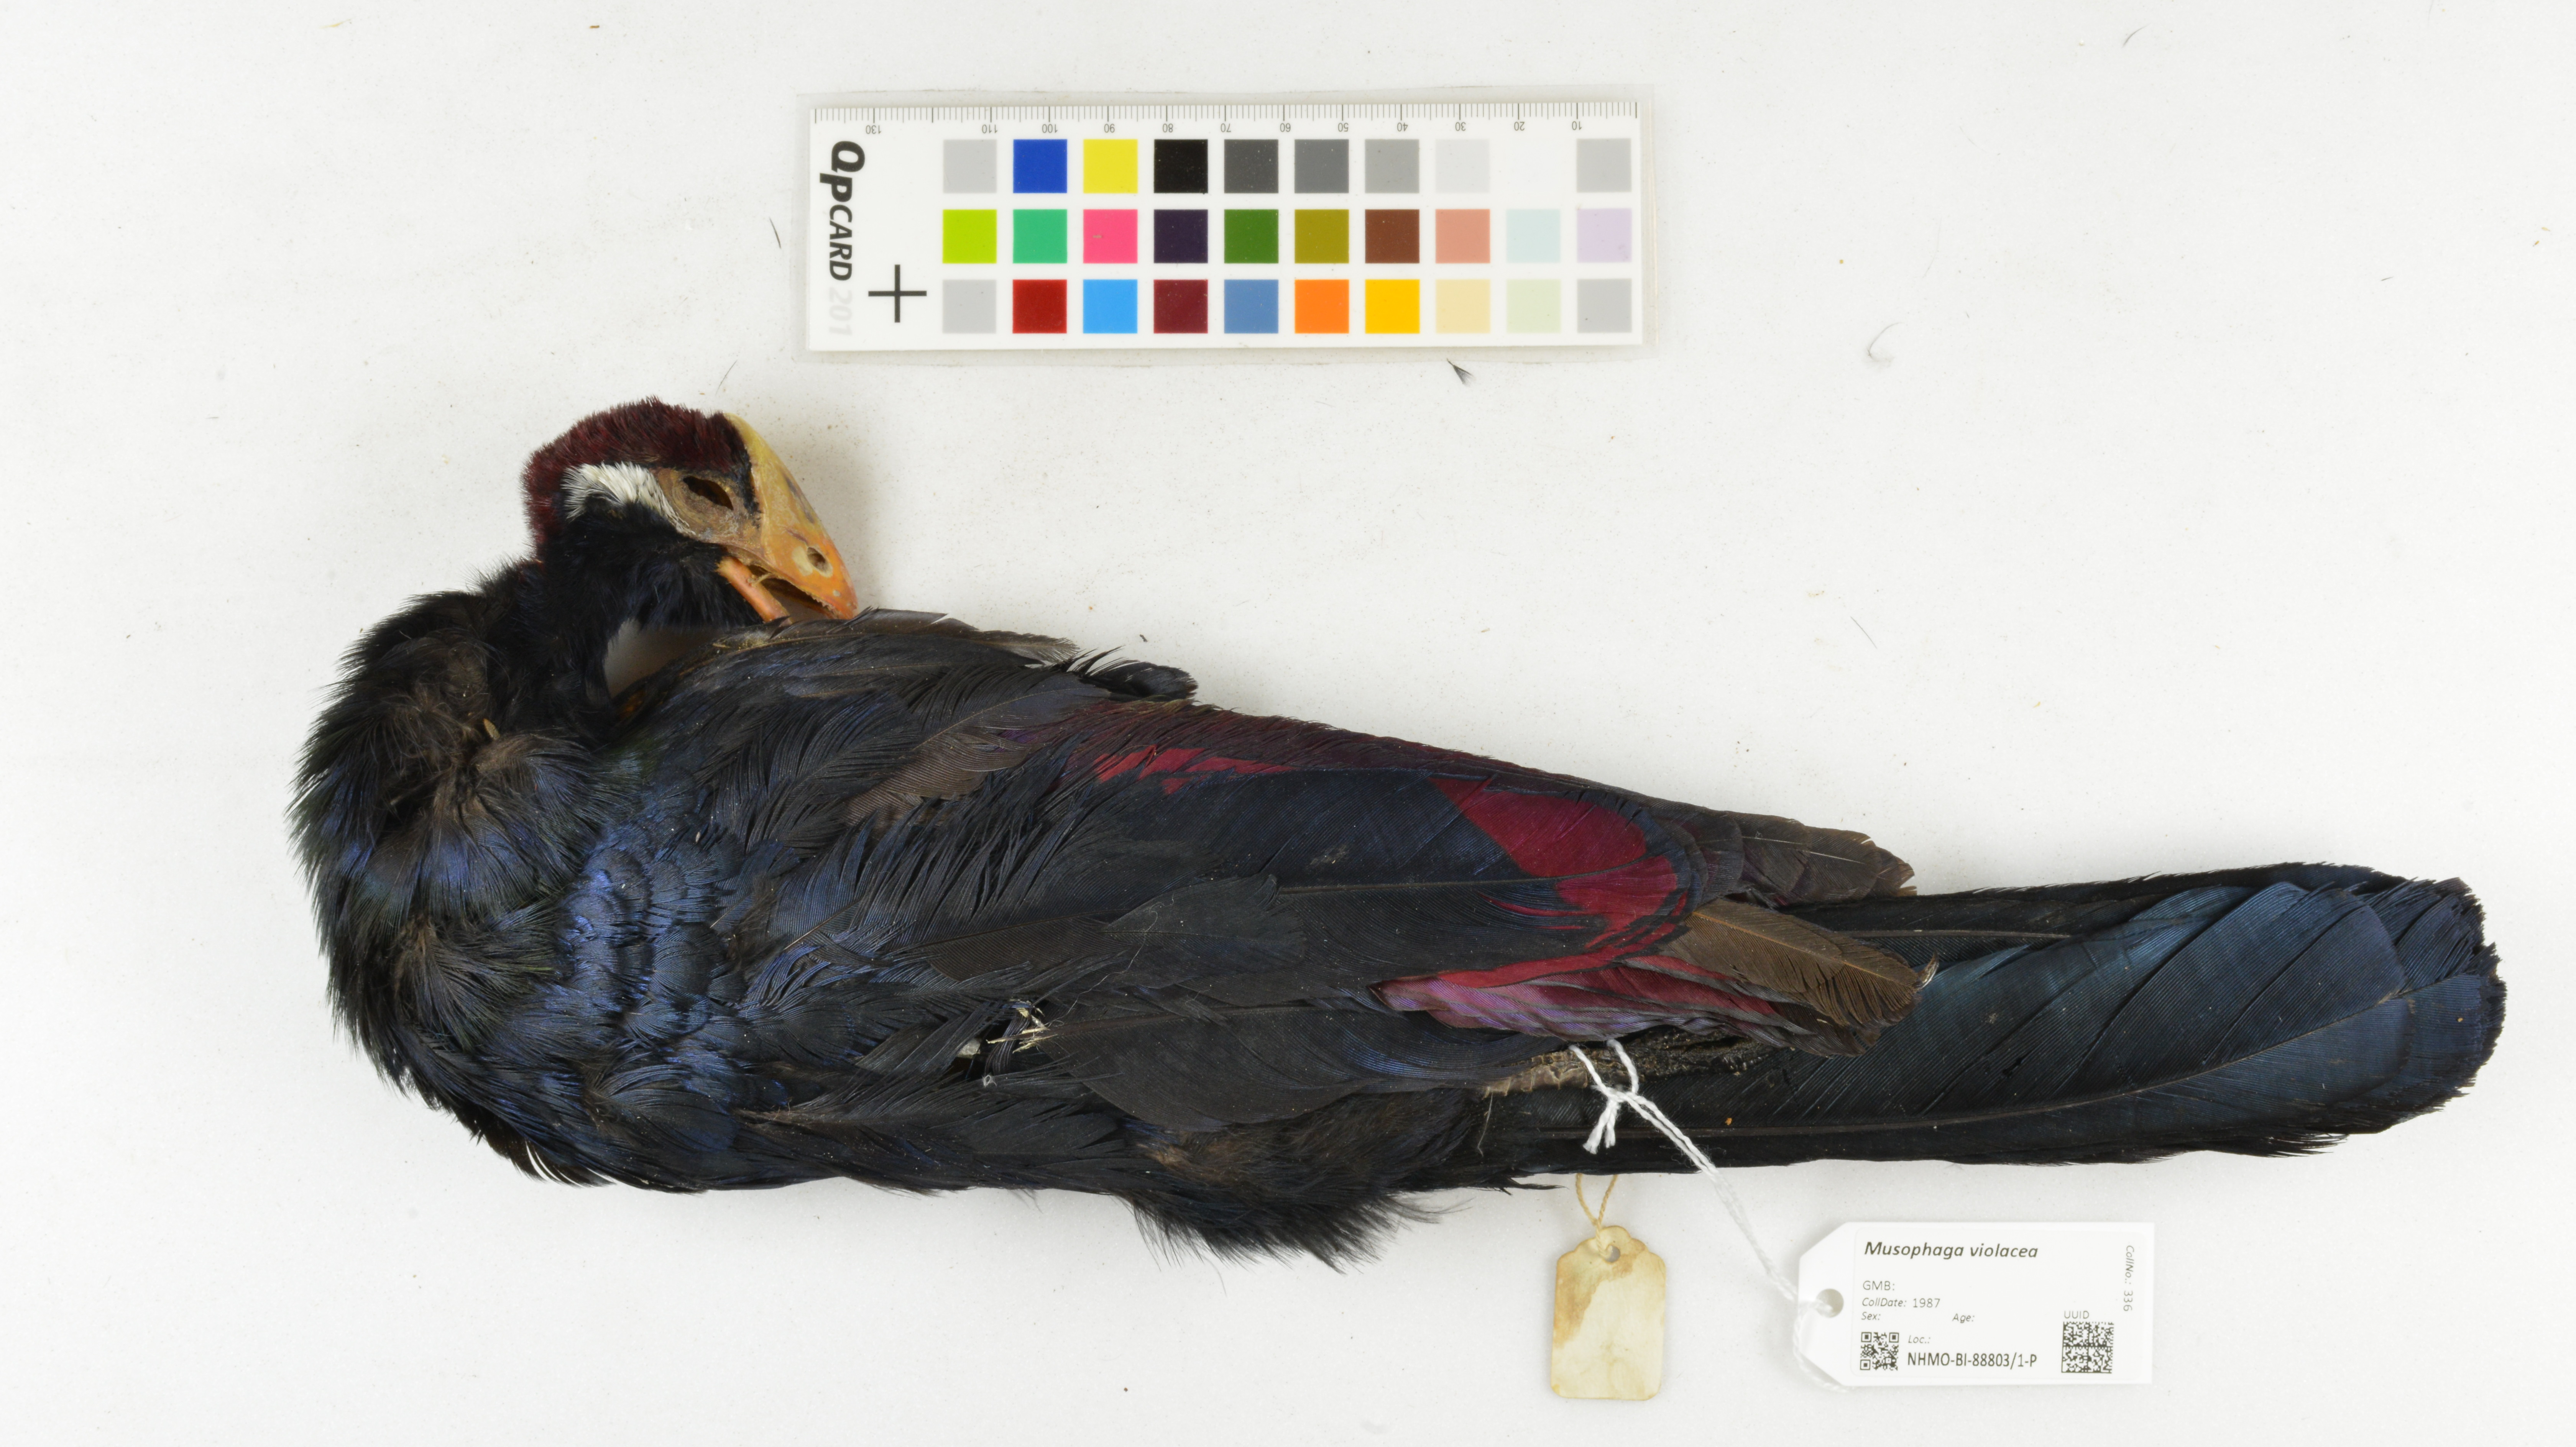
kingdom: Animalia
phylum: Chordata
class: Aves
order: Musophagiformes
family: Musophagidae
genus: Musophaga
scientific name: Musophaga violacea
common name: Violet turaco
